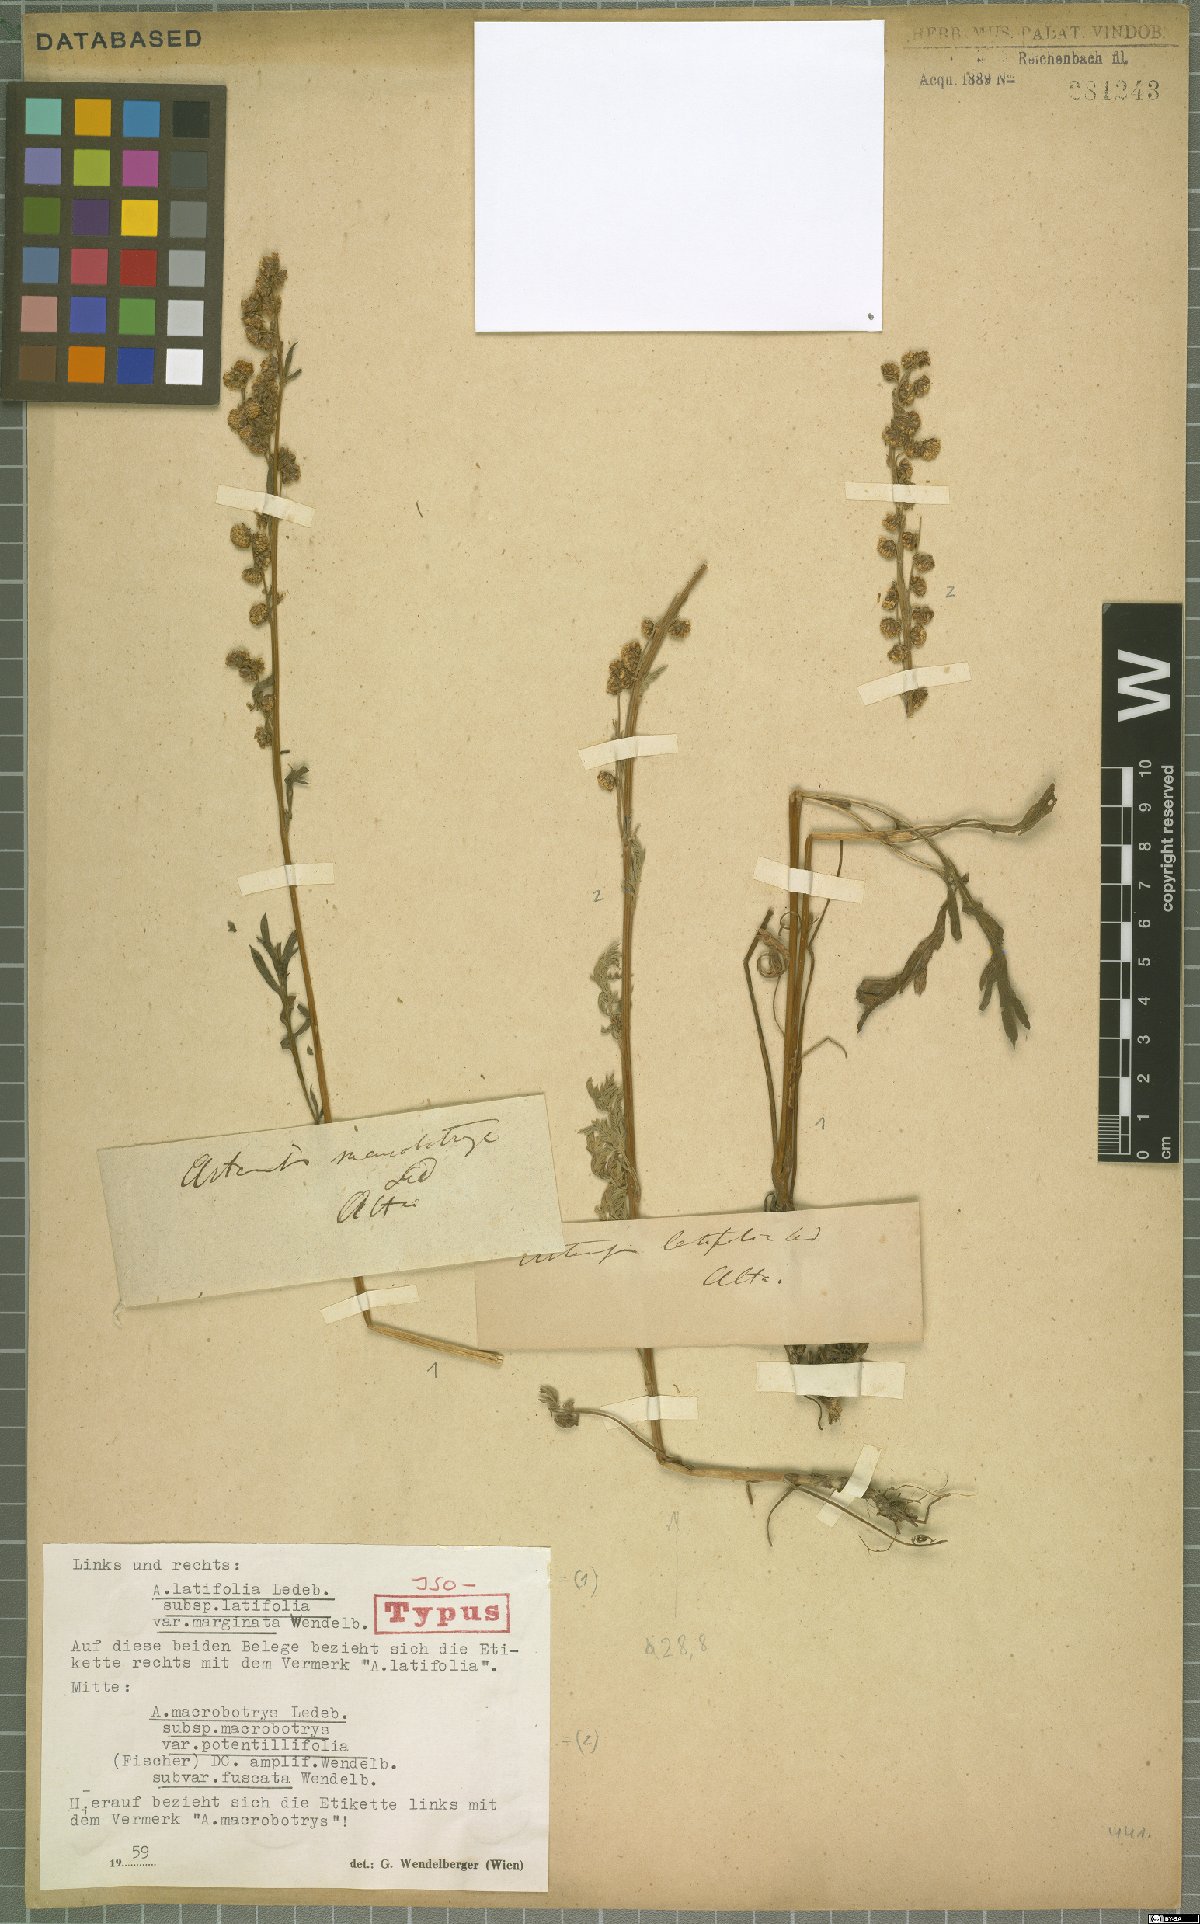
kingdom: Plantae
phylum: Tracheophyta
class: Magnoliopsida
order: Asterales
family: Asteraceae
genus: Artemisia
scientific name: Artemisia latifolia
